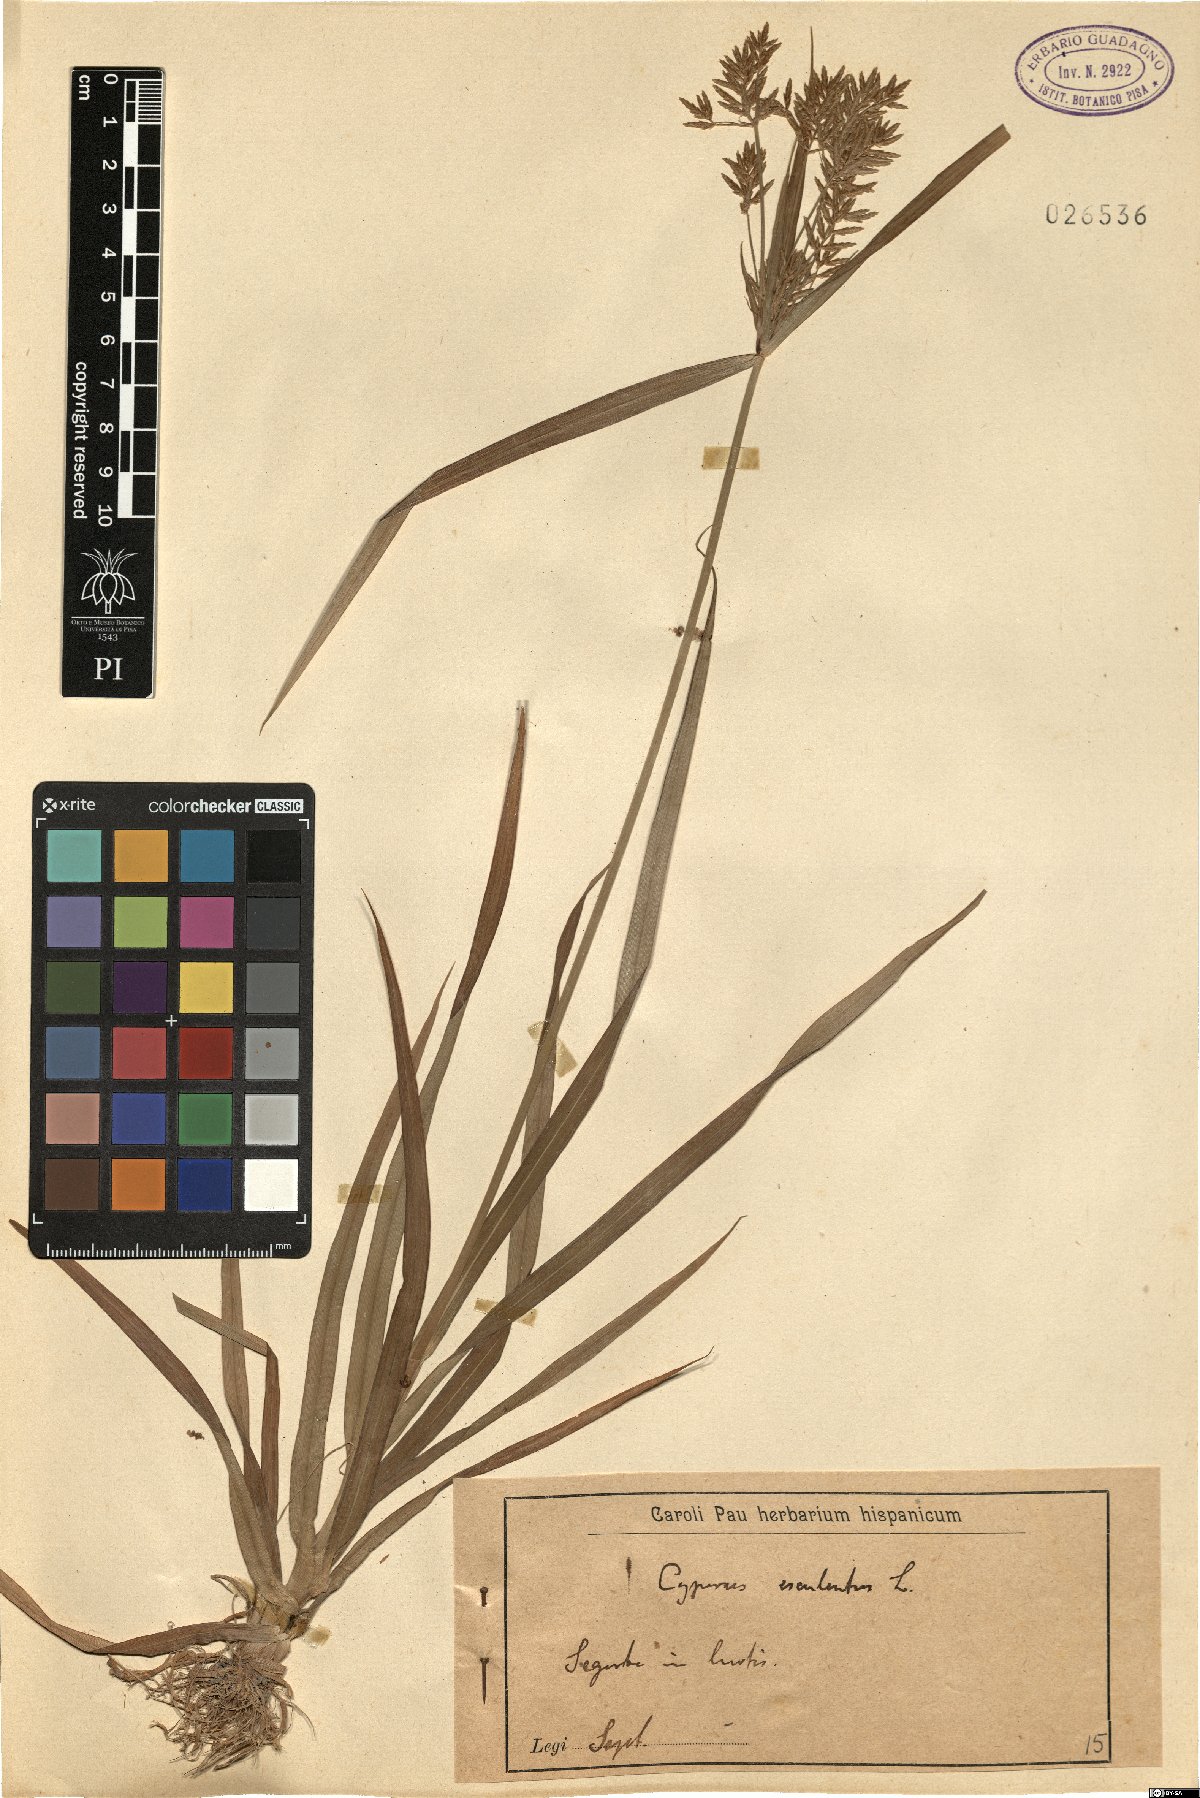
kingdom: Plantae
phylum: Tracheophyta
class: Liliopsida
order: Poales
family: Cyperaceae
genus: Cyperus
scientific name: Cyperus esculentus
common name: Yellow nutsedge
